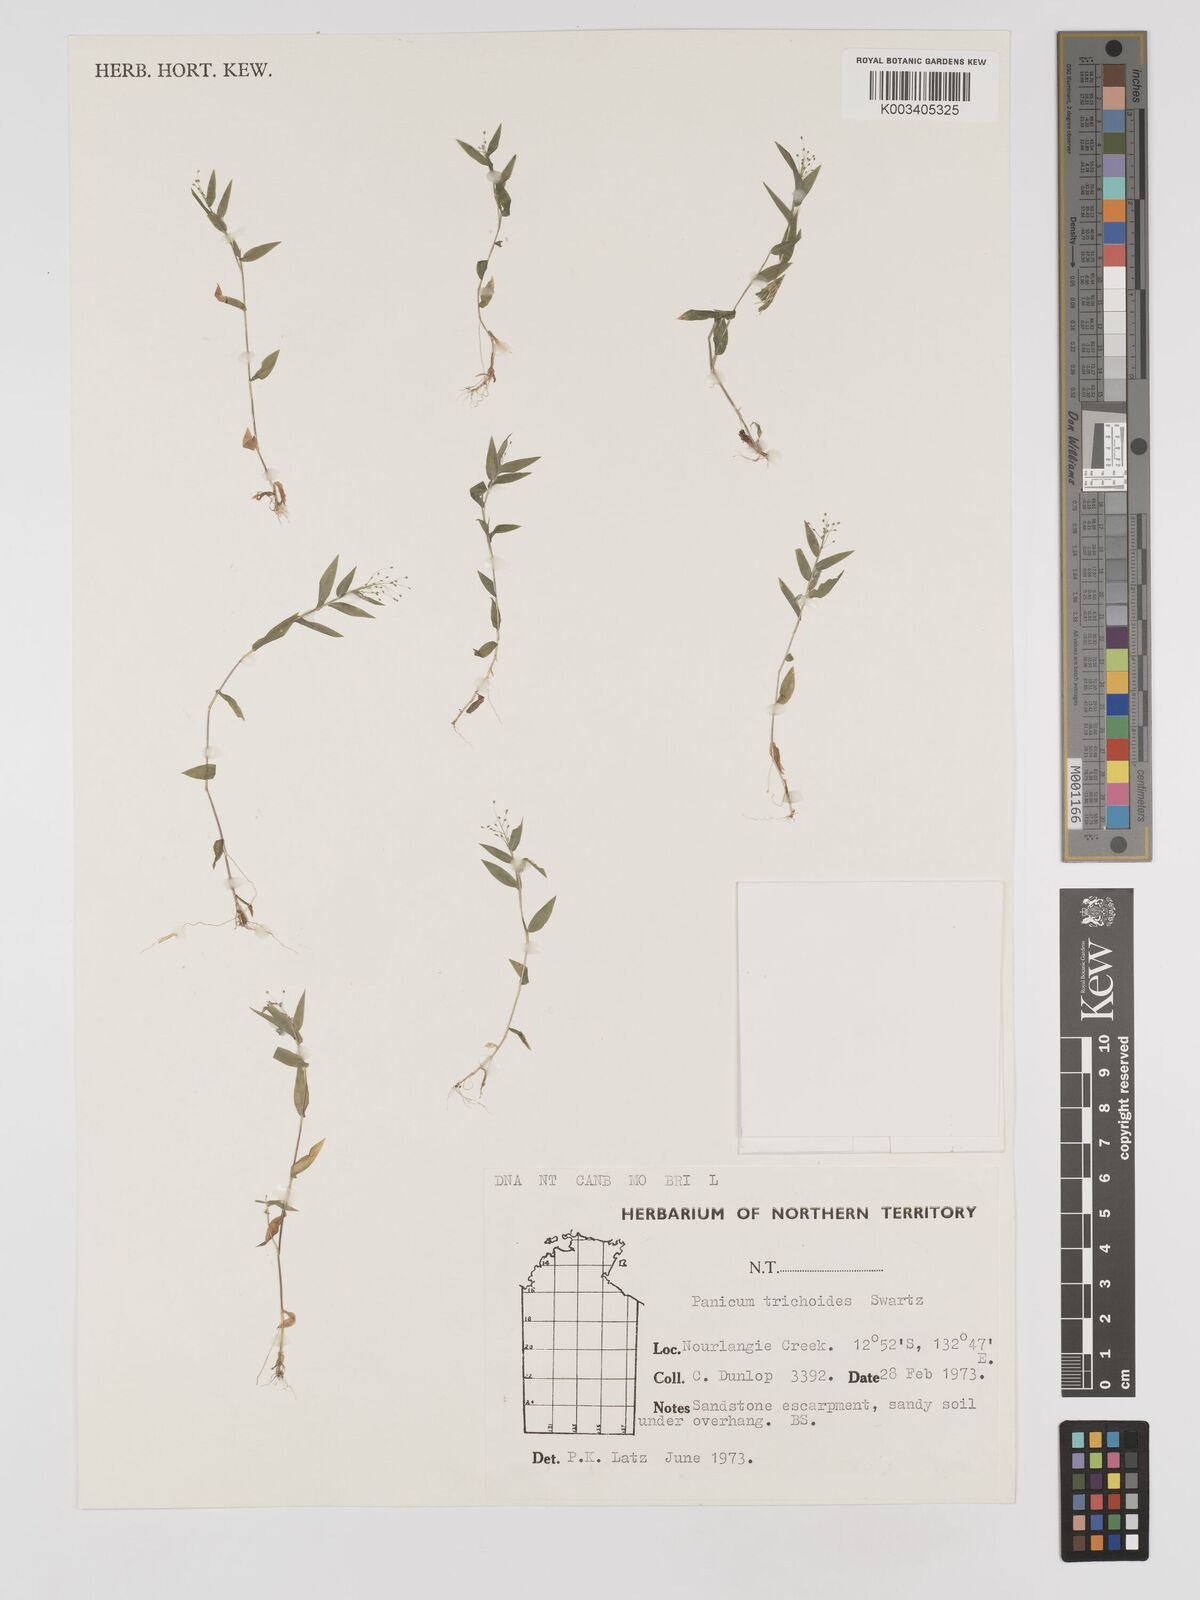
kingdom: Plantae
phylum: Tracheophyta
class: Liliopsida
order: Poales
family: Poaceae
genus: Panicum
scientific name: Panicum trichoides
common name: Tickle grass
